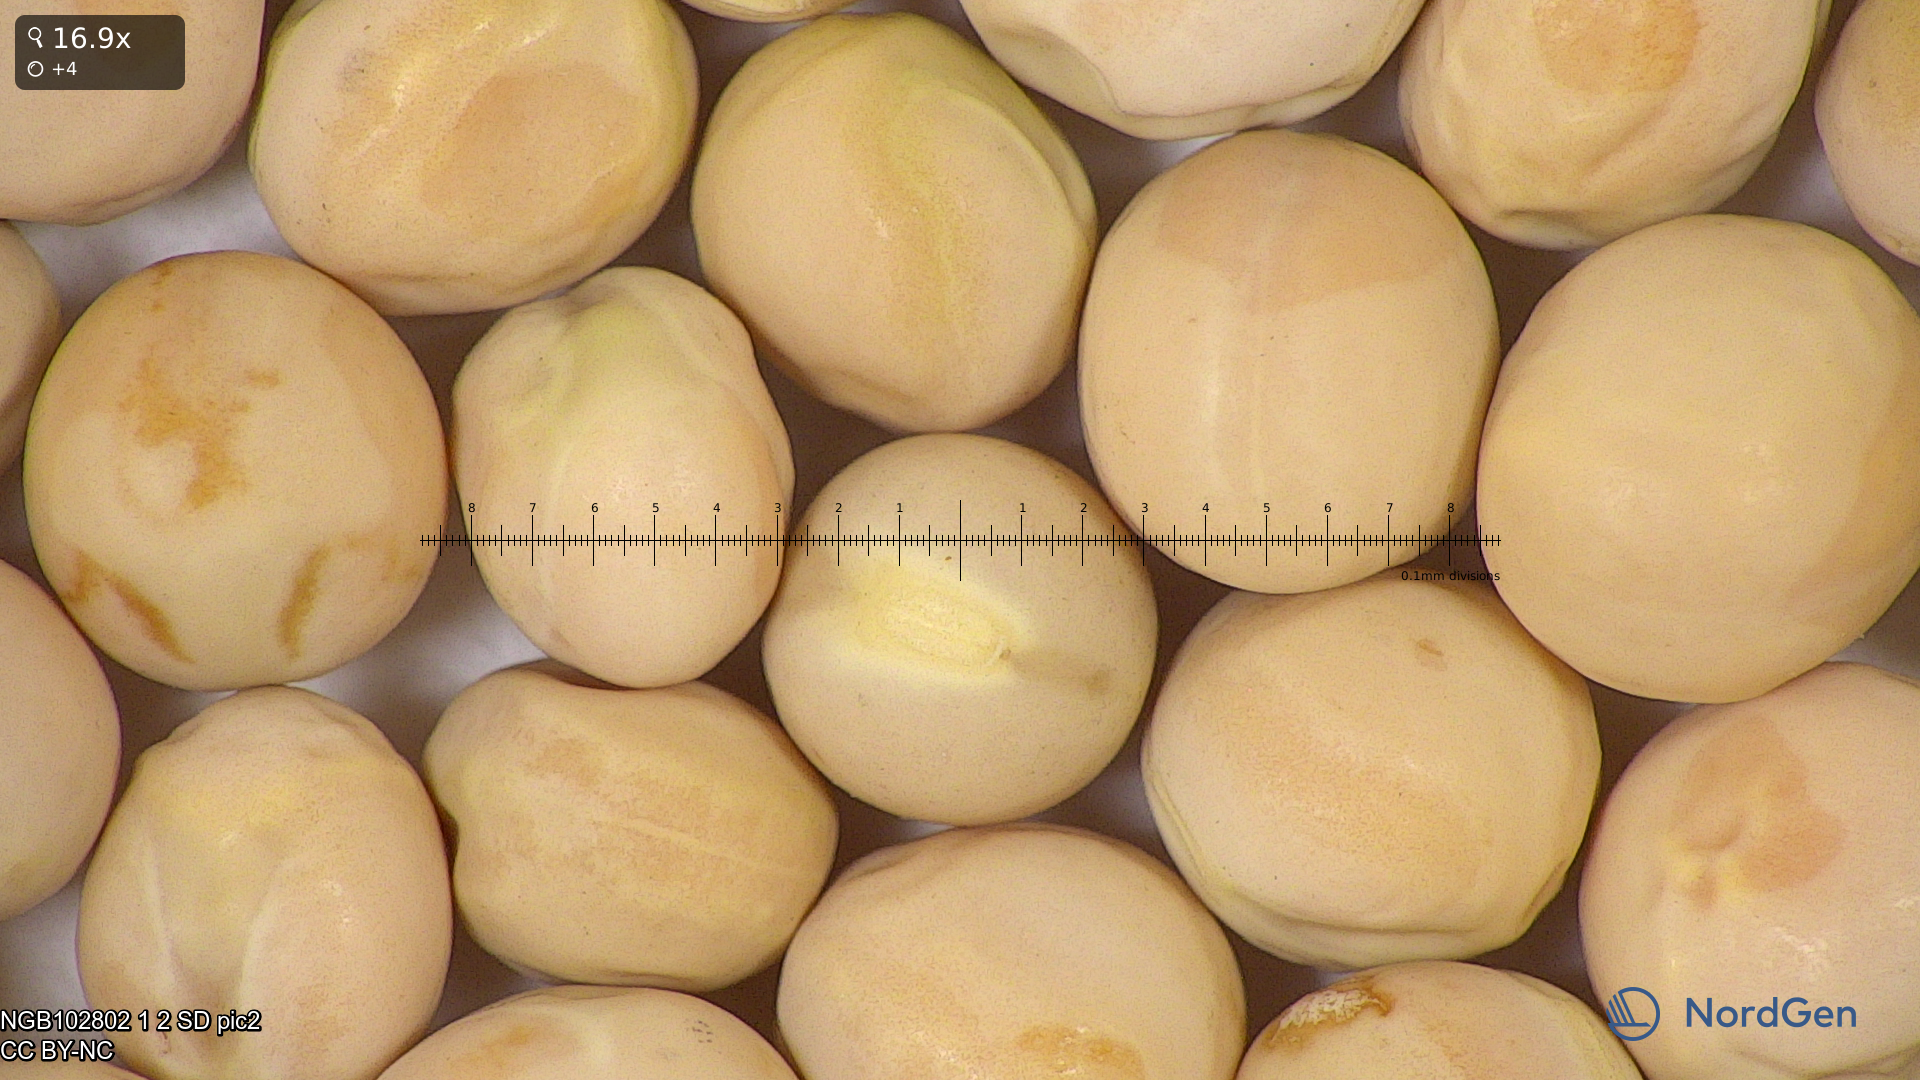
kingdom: Plantae
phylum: Tracheophyta
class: Magnoliopsida
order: Fabales
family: Fabaceae
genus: Lathyrus
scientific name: Lathyrus oleraceus
